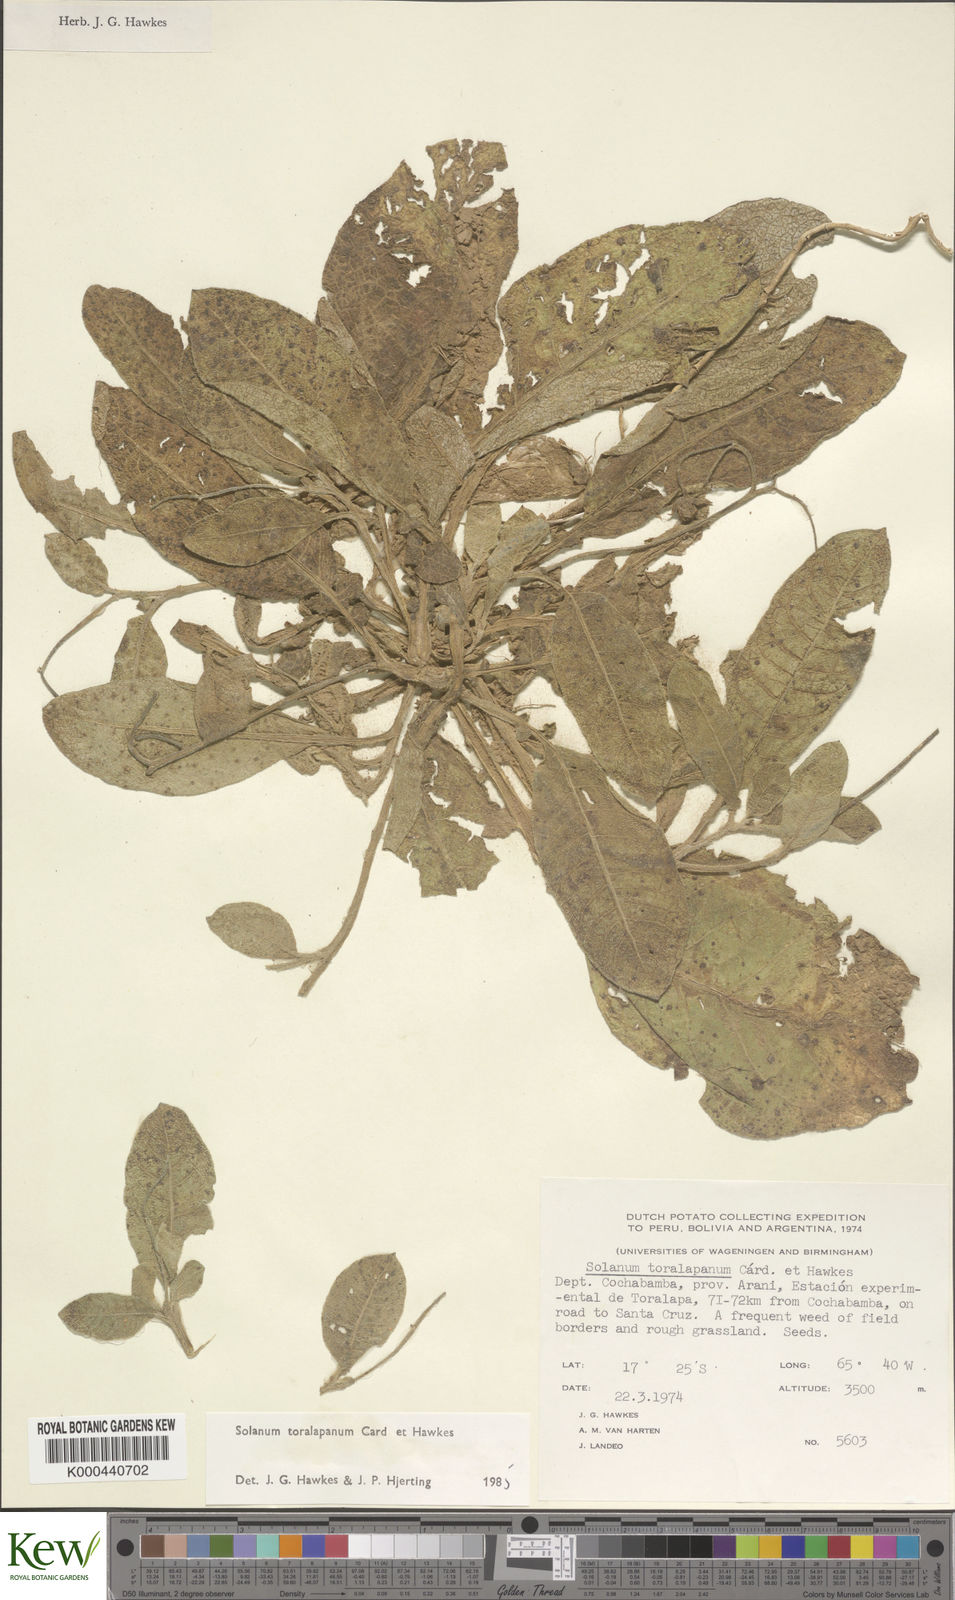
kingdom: Plantae
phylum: Tracheophyta
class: Magnoliopsida
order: Solanales
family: Solanaceae
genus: Solanum
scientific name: Solanum boliviense
